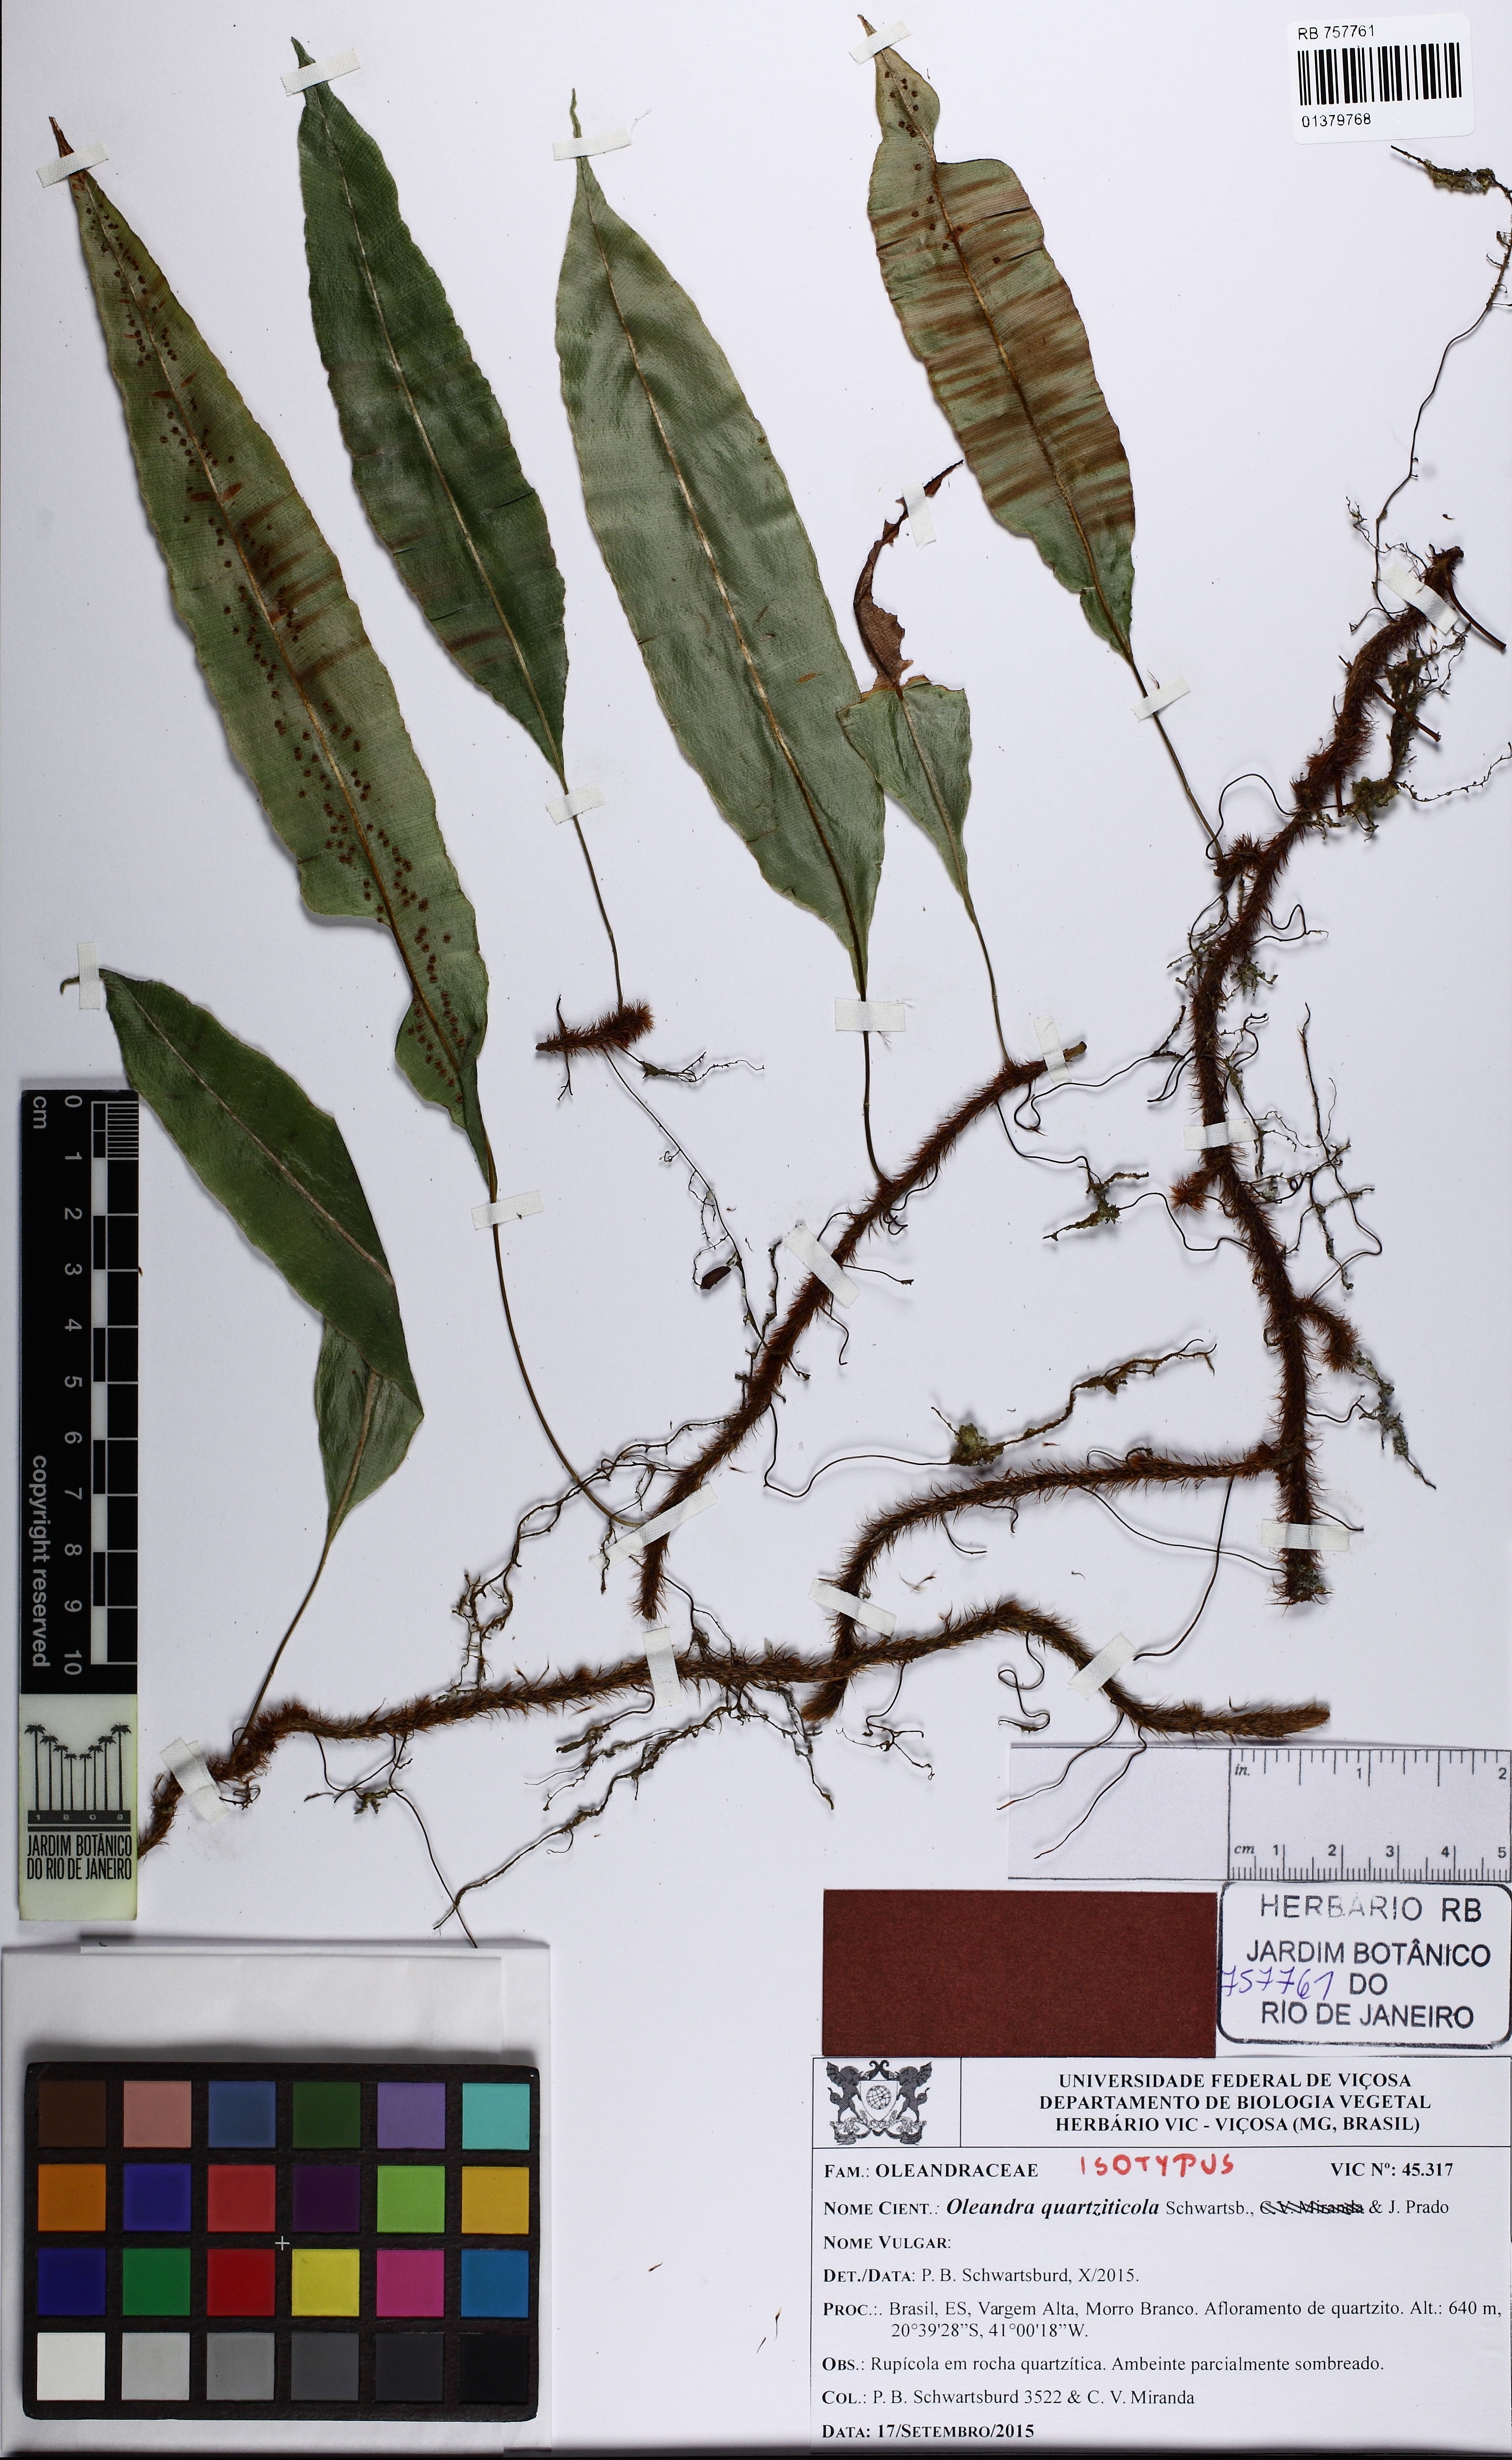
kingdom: Plantae
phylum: Tracheophyta
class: Polypodiopsida
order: Polypodiales
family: Oleandraceae
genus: Oleandra
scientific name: Oleandra quartziticola
